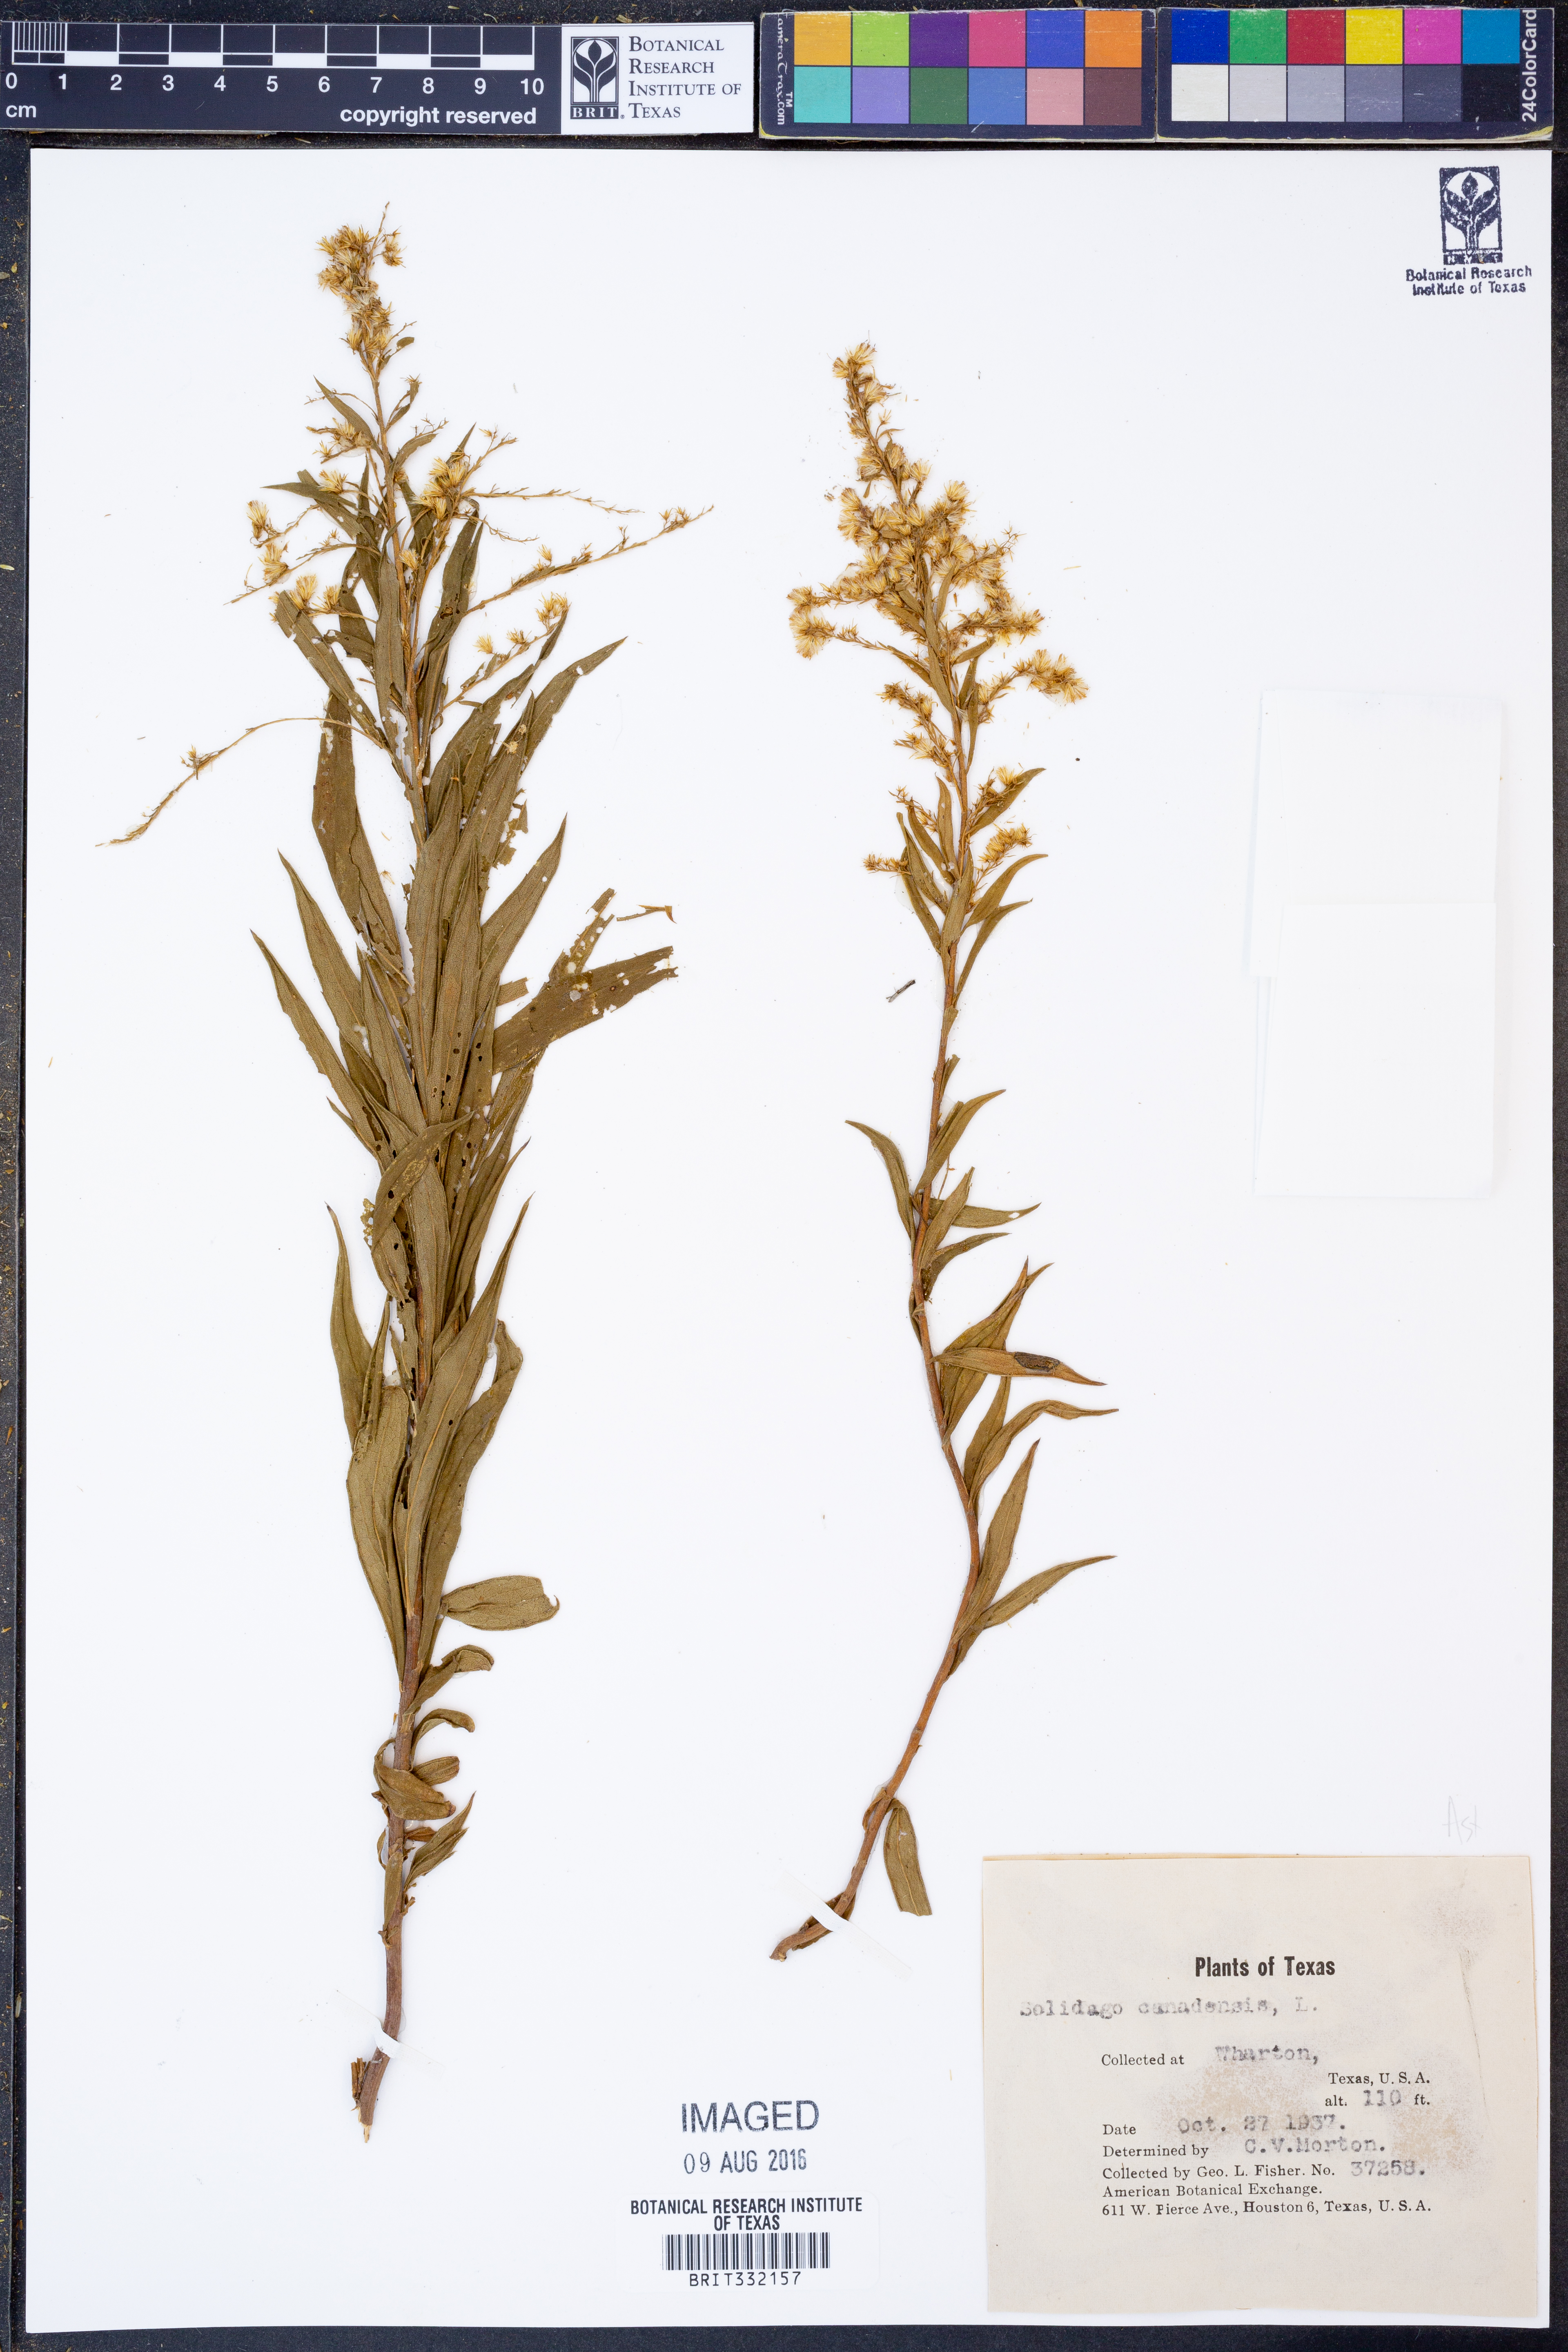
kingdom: Plantae
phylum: Tracheophyta
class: Magnoliopsida
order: Asterales
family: Asteraceae
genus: Solidago
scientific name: Solidago canadensis
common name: Canada goldenrod
